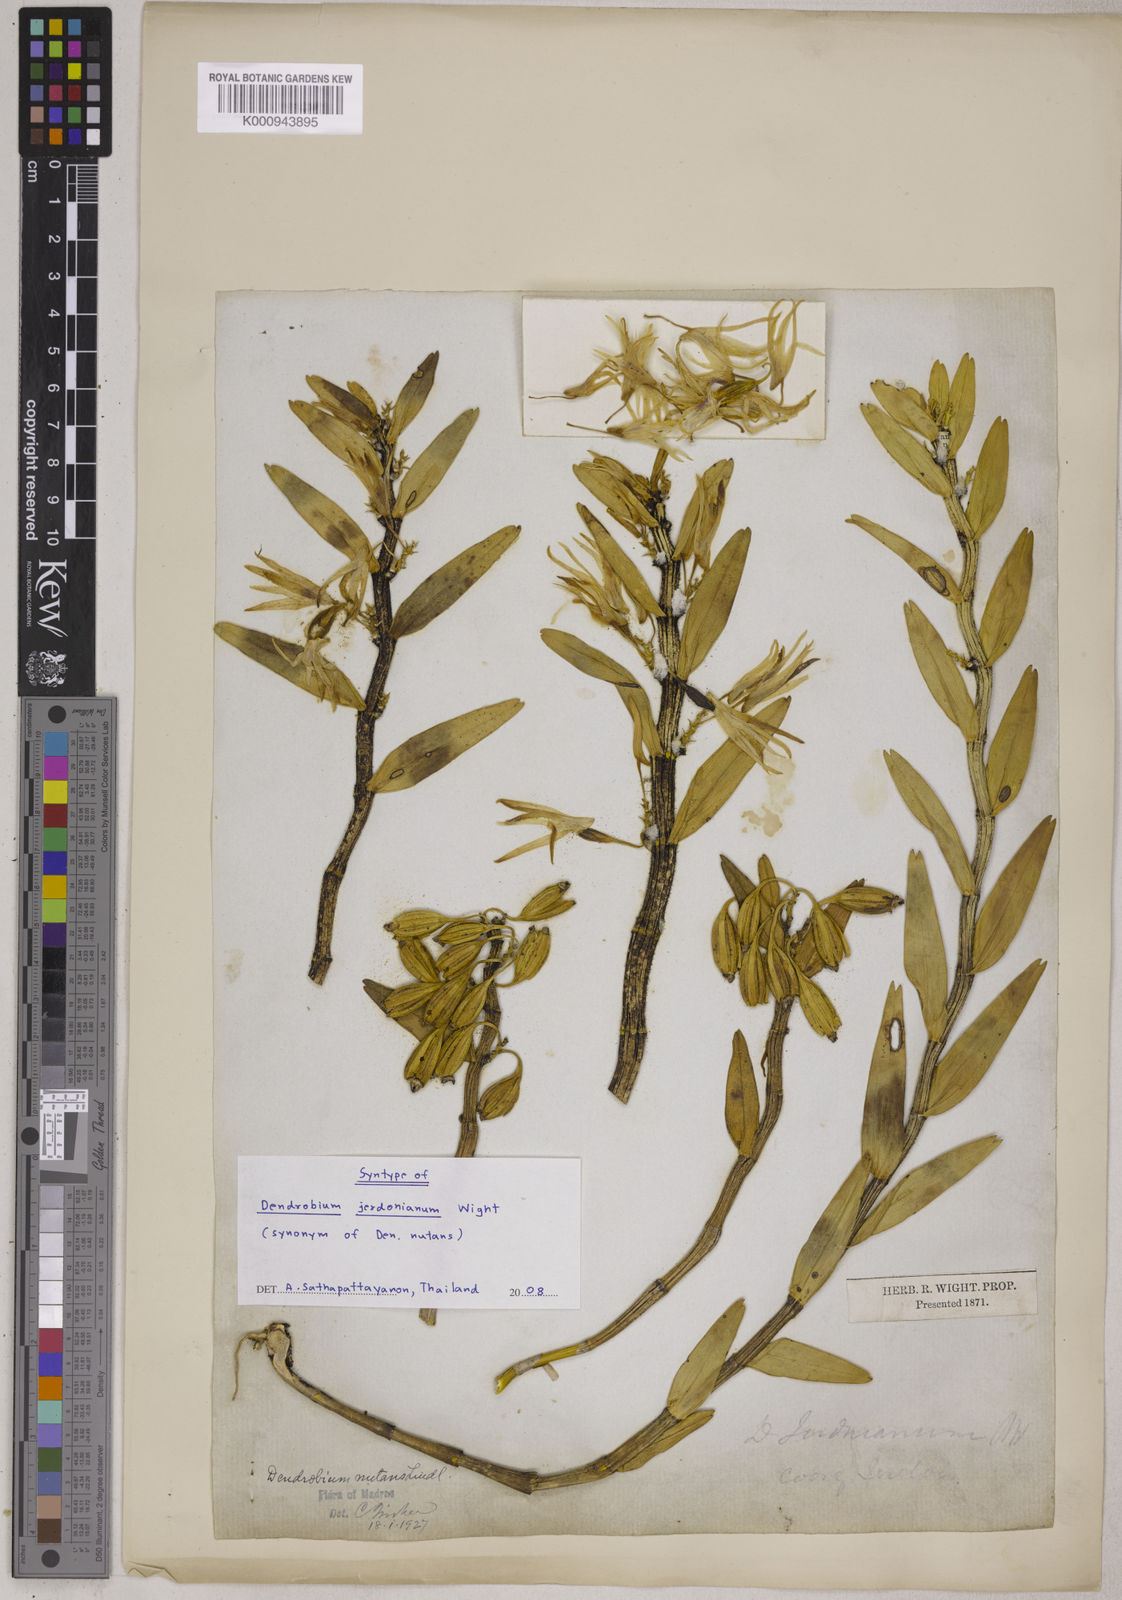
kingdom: Plantae
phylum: Tracheophyta
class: Liliopsida
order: Asparagales
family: Orchidaceae
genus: Dendrobium
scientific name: Dendrobium jerdonianum
